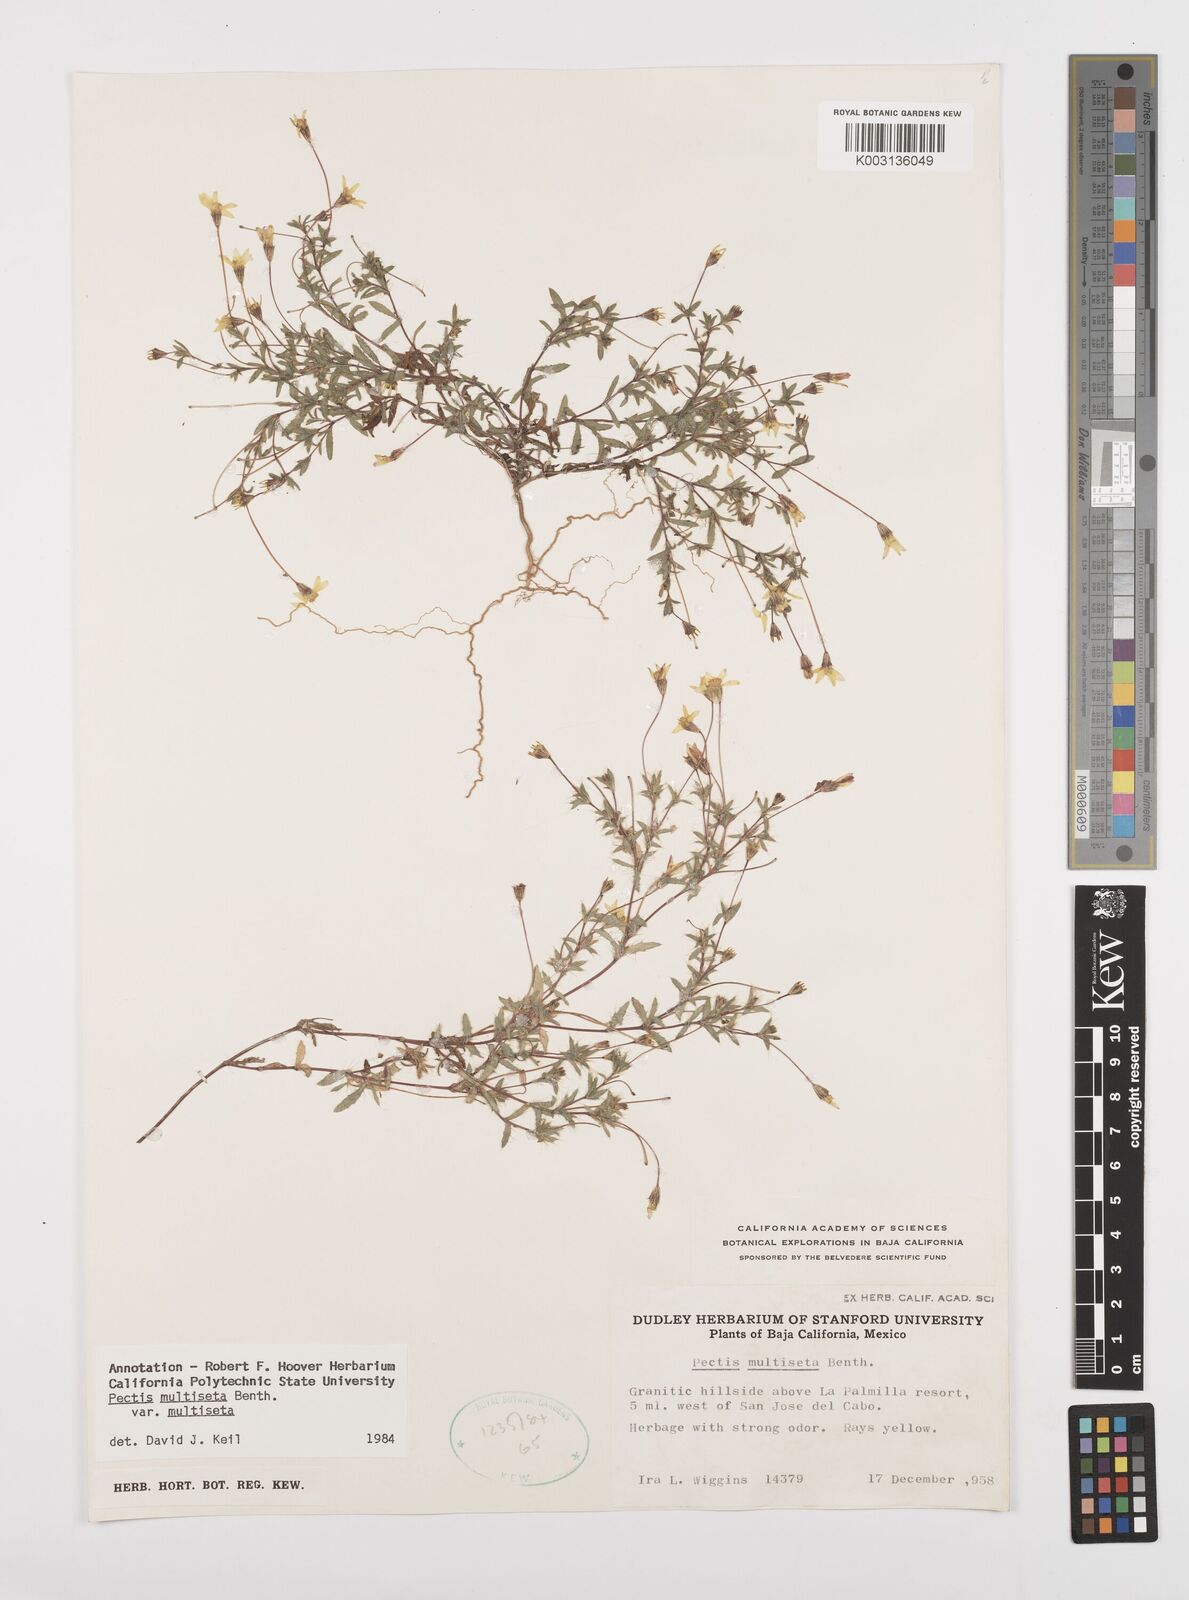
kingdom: Plantae
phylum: Tracheophyta
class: Magnoliopsida
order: Asterales
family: Asteraceae
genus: Pectis
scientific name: Pectis multiseta
